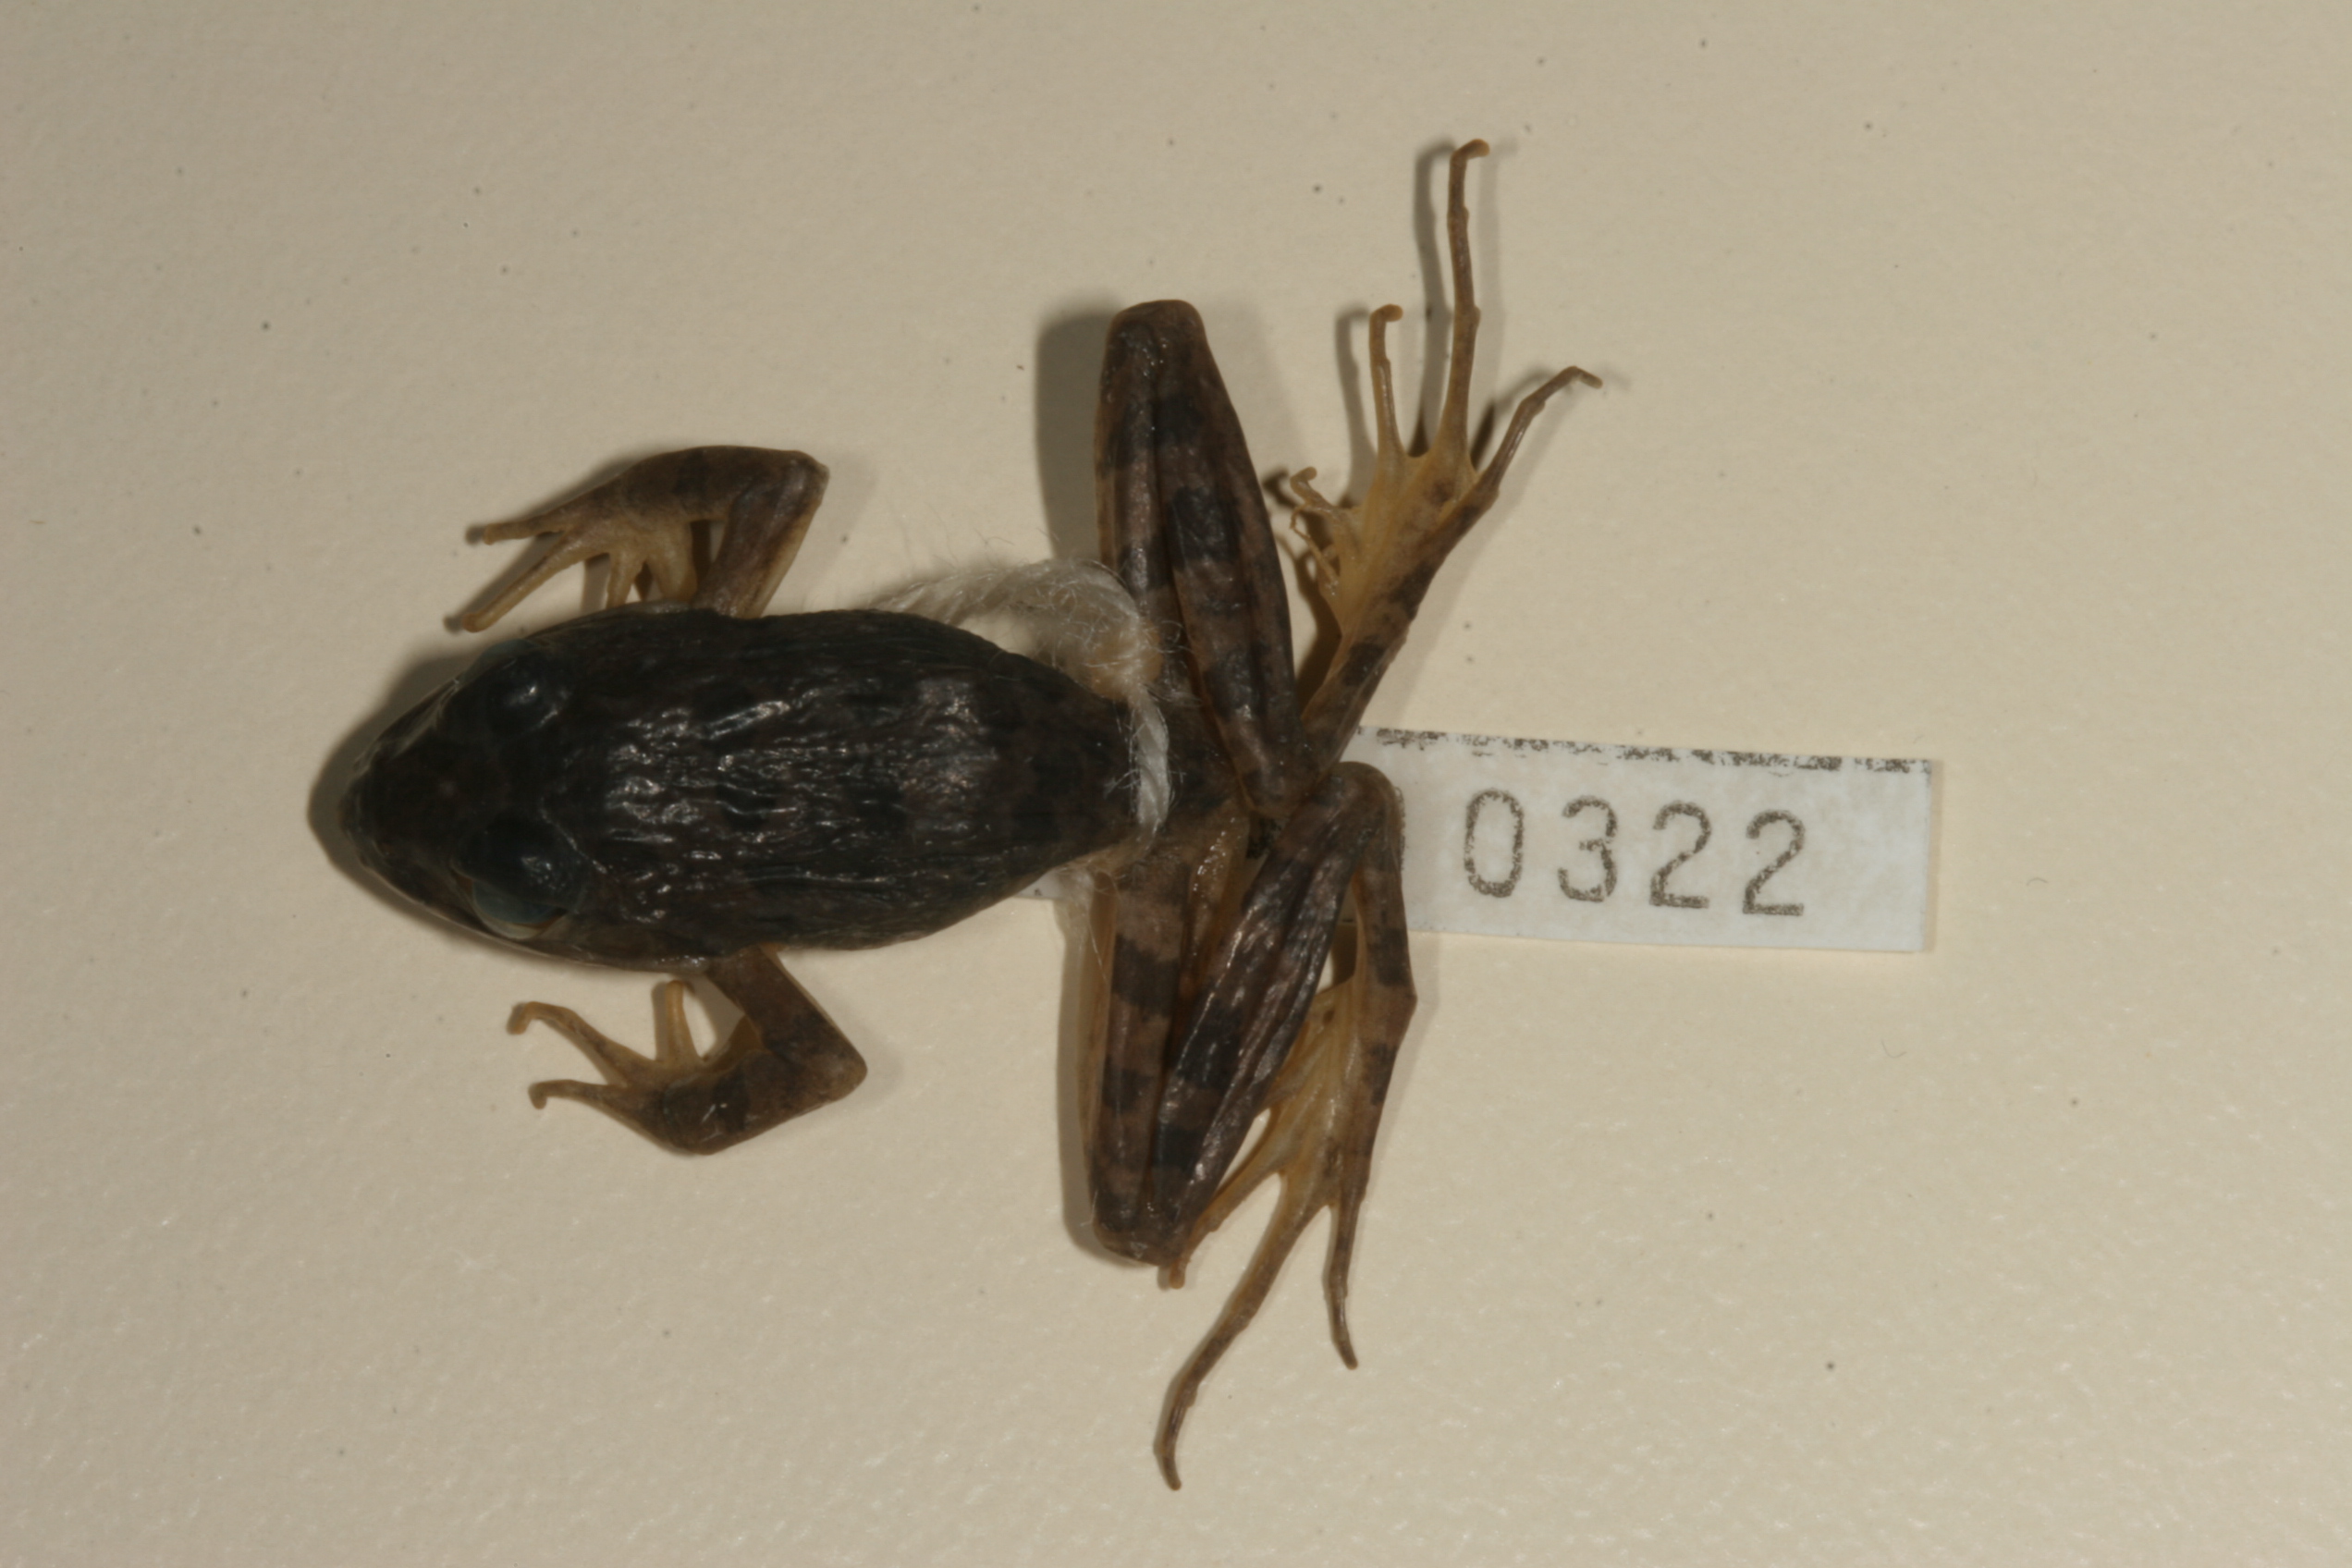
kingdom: Animalia
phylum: Chordata
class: Amphibia
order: Anura
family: Pyxicephalidae
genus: Amietia
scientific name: Amietia fuscigula
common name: Cape rana
